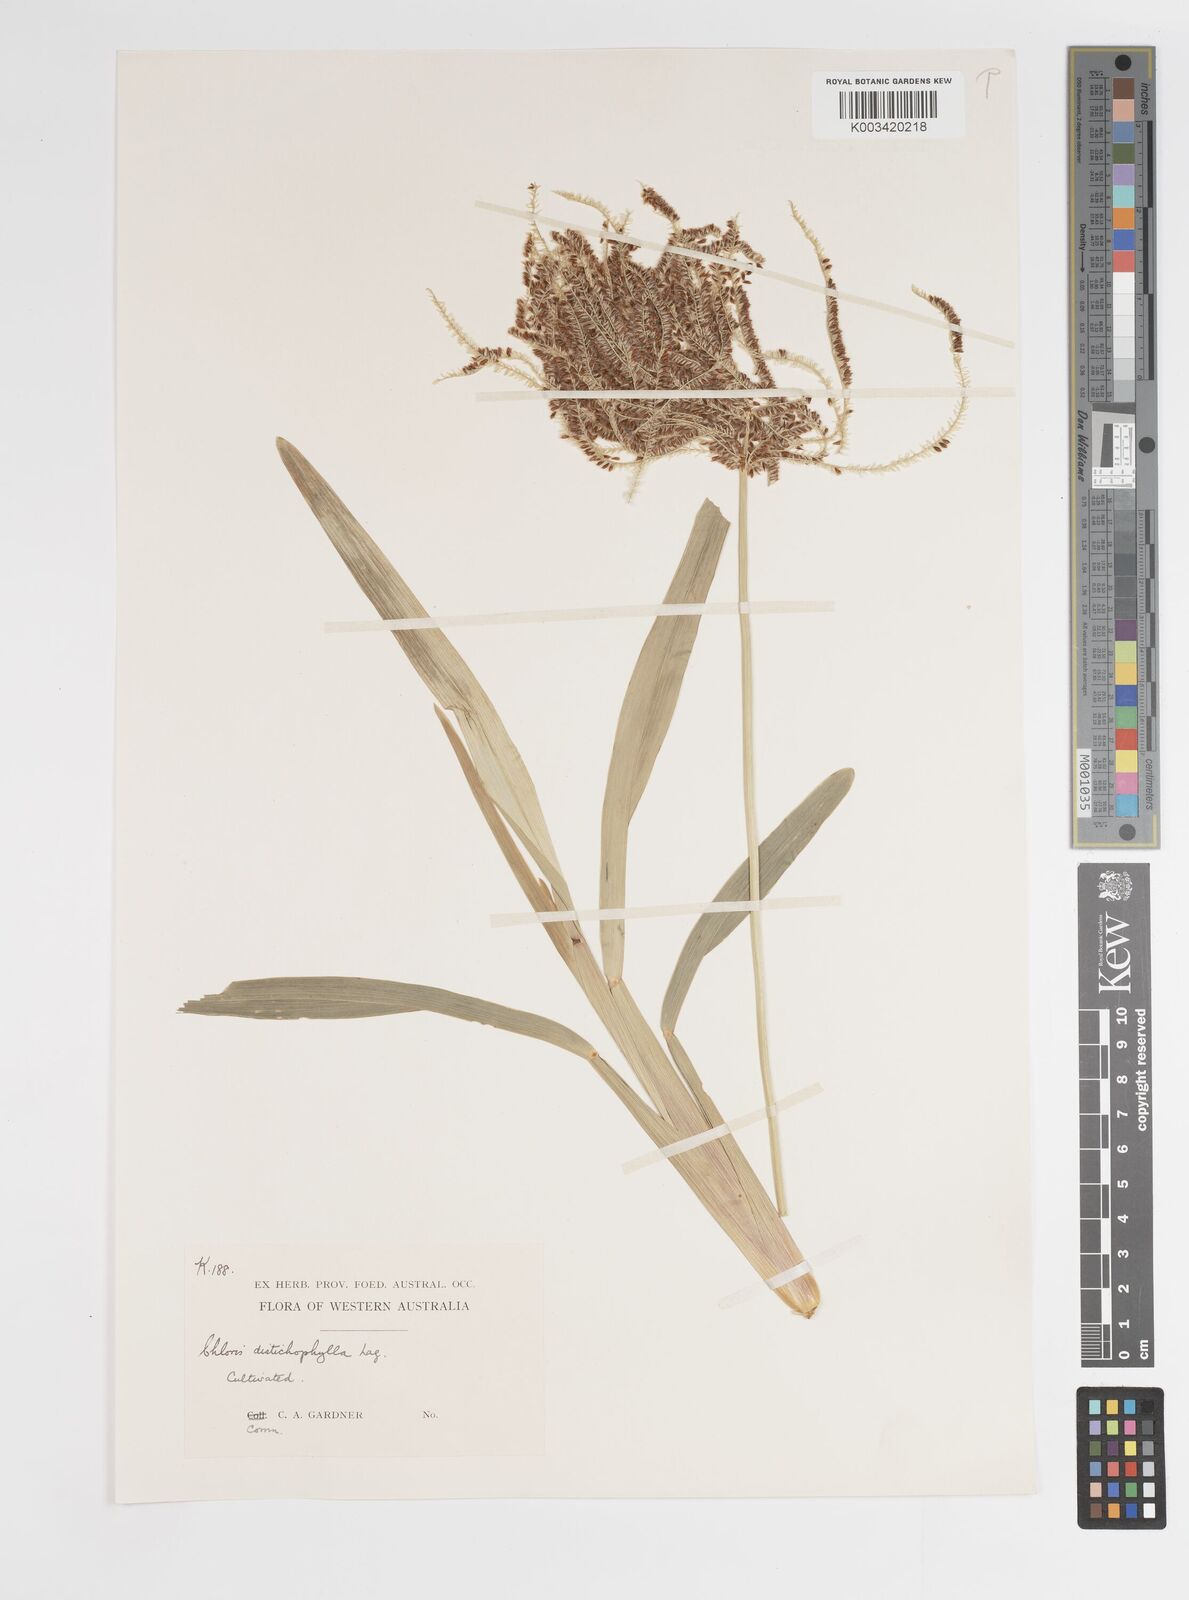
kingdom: Plantae
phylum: Tracheophyta
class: Liliopsida
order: Poales
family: Poaceae
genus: Eustachys
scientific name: Eustachys distichophylla
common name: Weeping fingergrass
